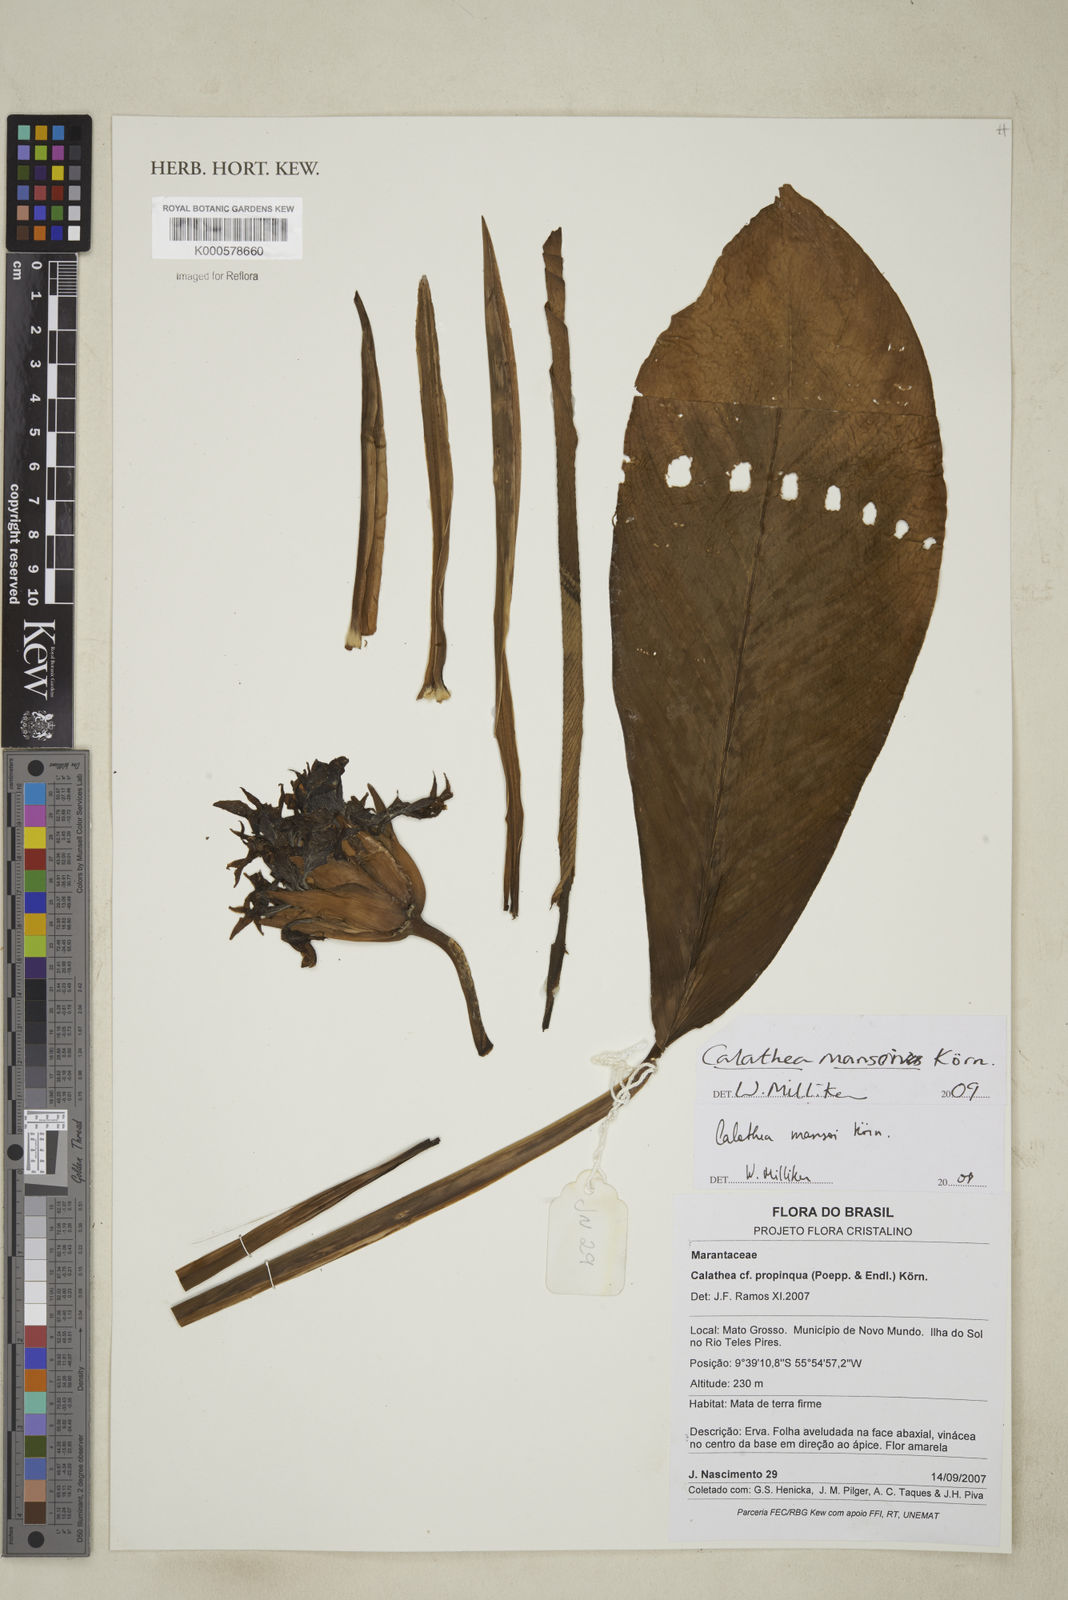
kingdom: Plantae
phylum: Tracheophyta
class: Liliopsida
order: Zingiberales
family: Marantaceae
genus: Calathea
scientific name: Calathea
